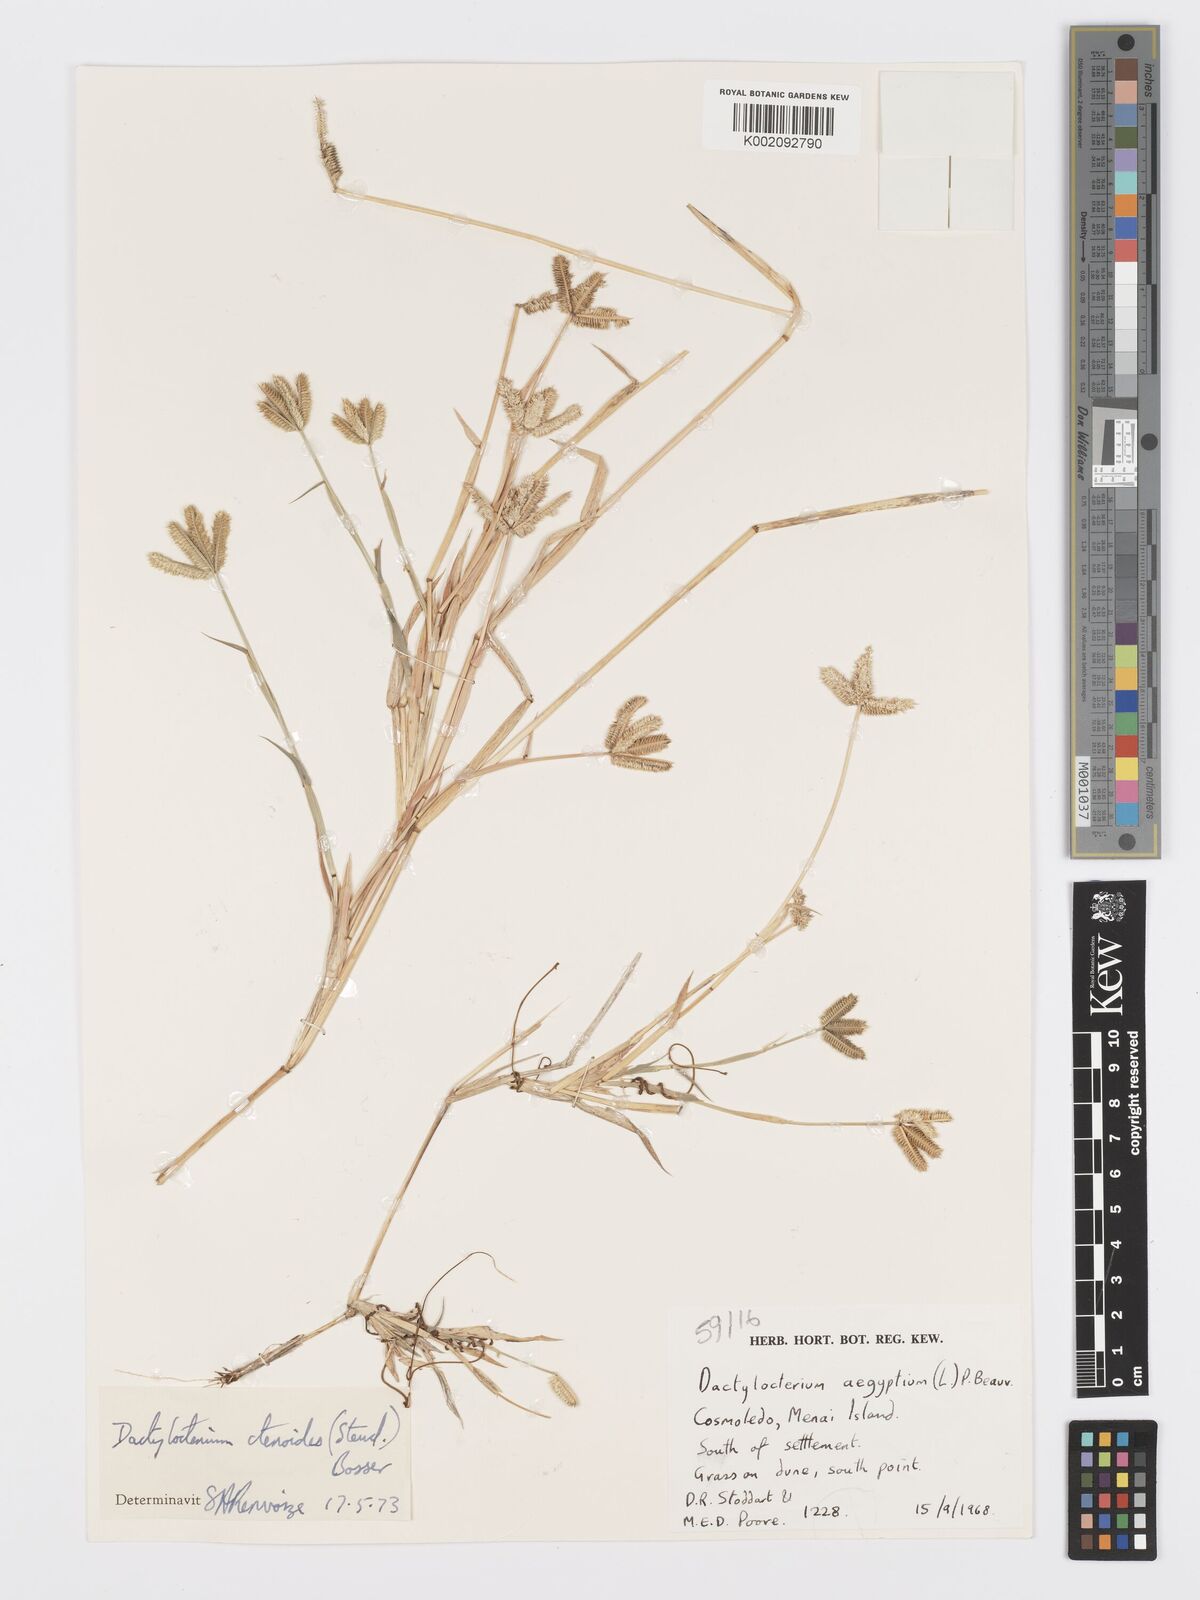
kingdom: Plantae
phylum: Tracheophyta
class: Liliopsida
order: Poales
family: Poaceae
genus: Dactyloctenium
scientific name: Dactyloctenium ctenoides
